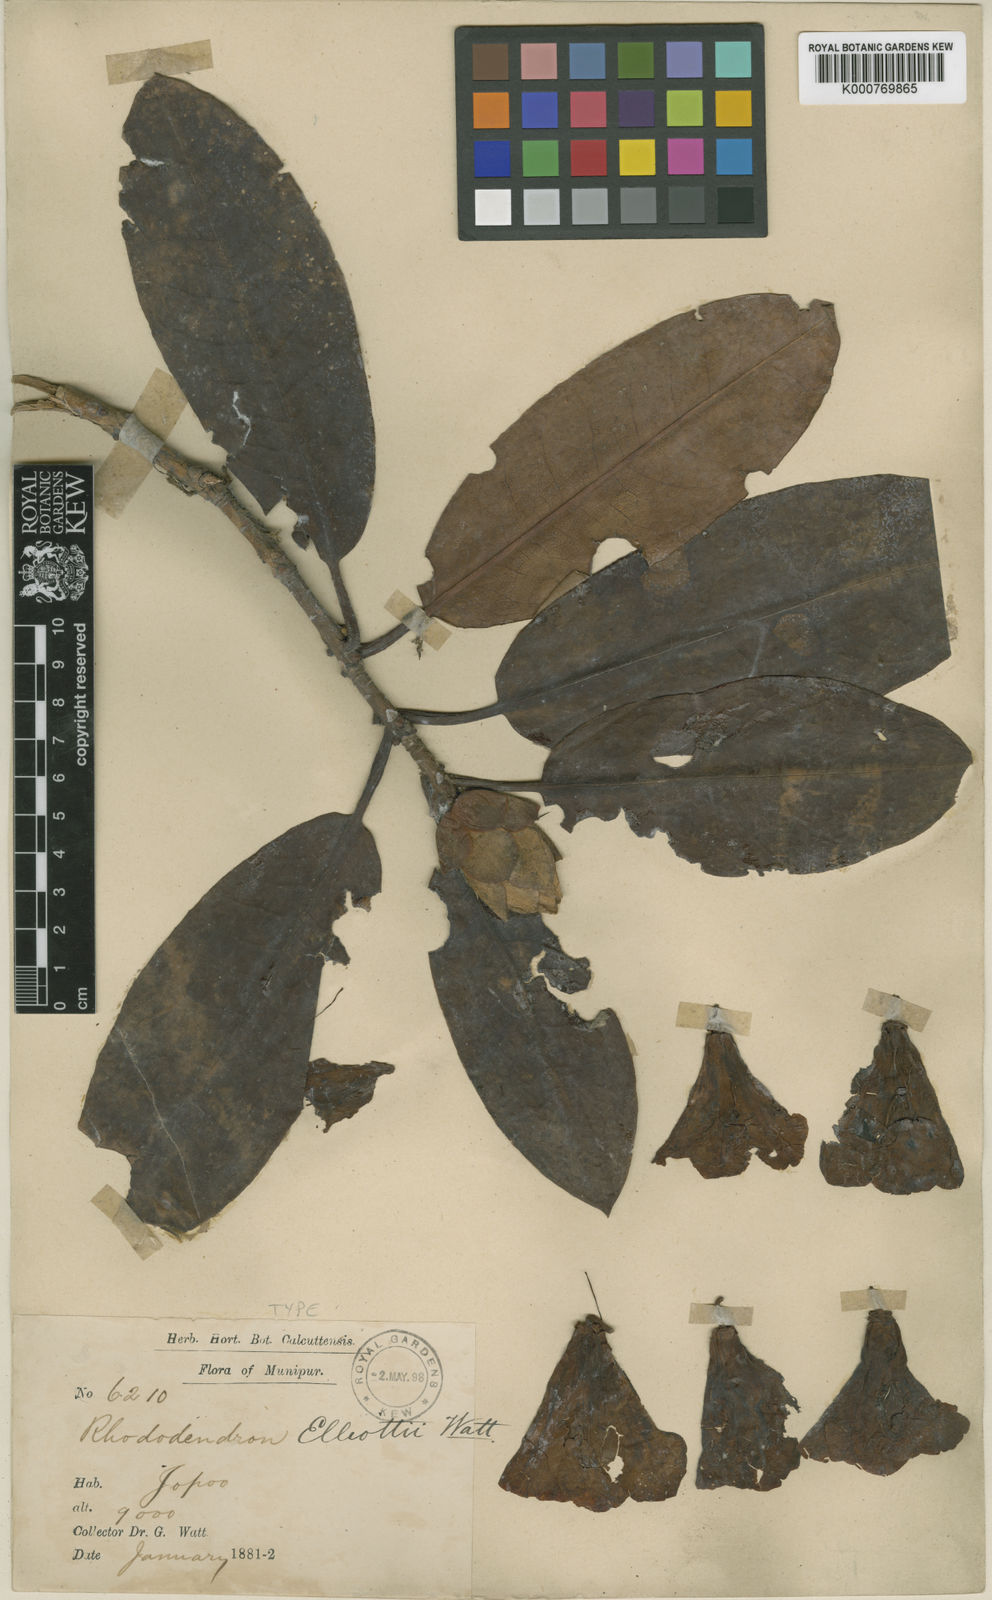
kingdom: Plantae
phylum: Tracheophyta
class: Magnoliopsida
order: Ericales
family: Ericaceae
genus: Rhododendron
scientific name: Rhododendron
